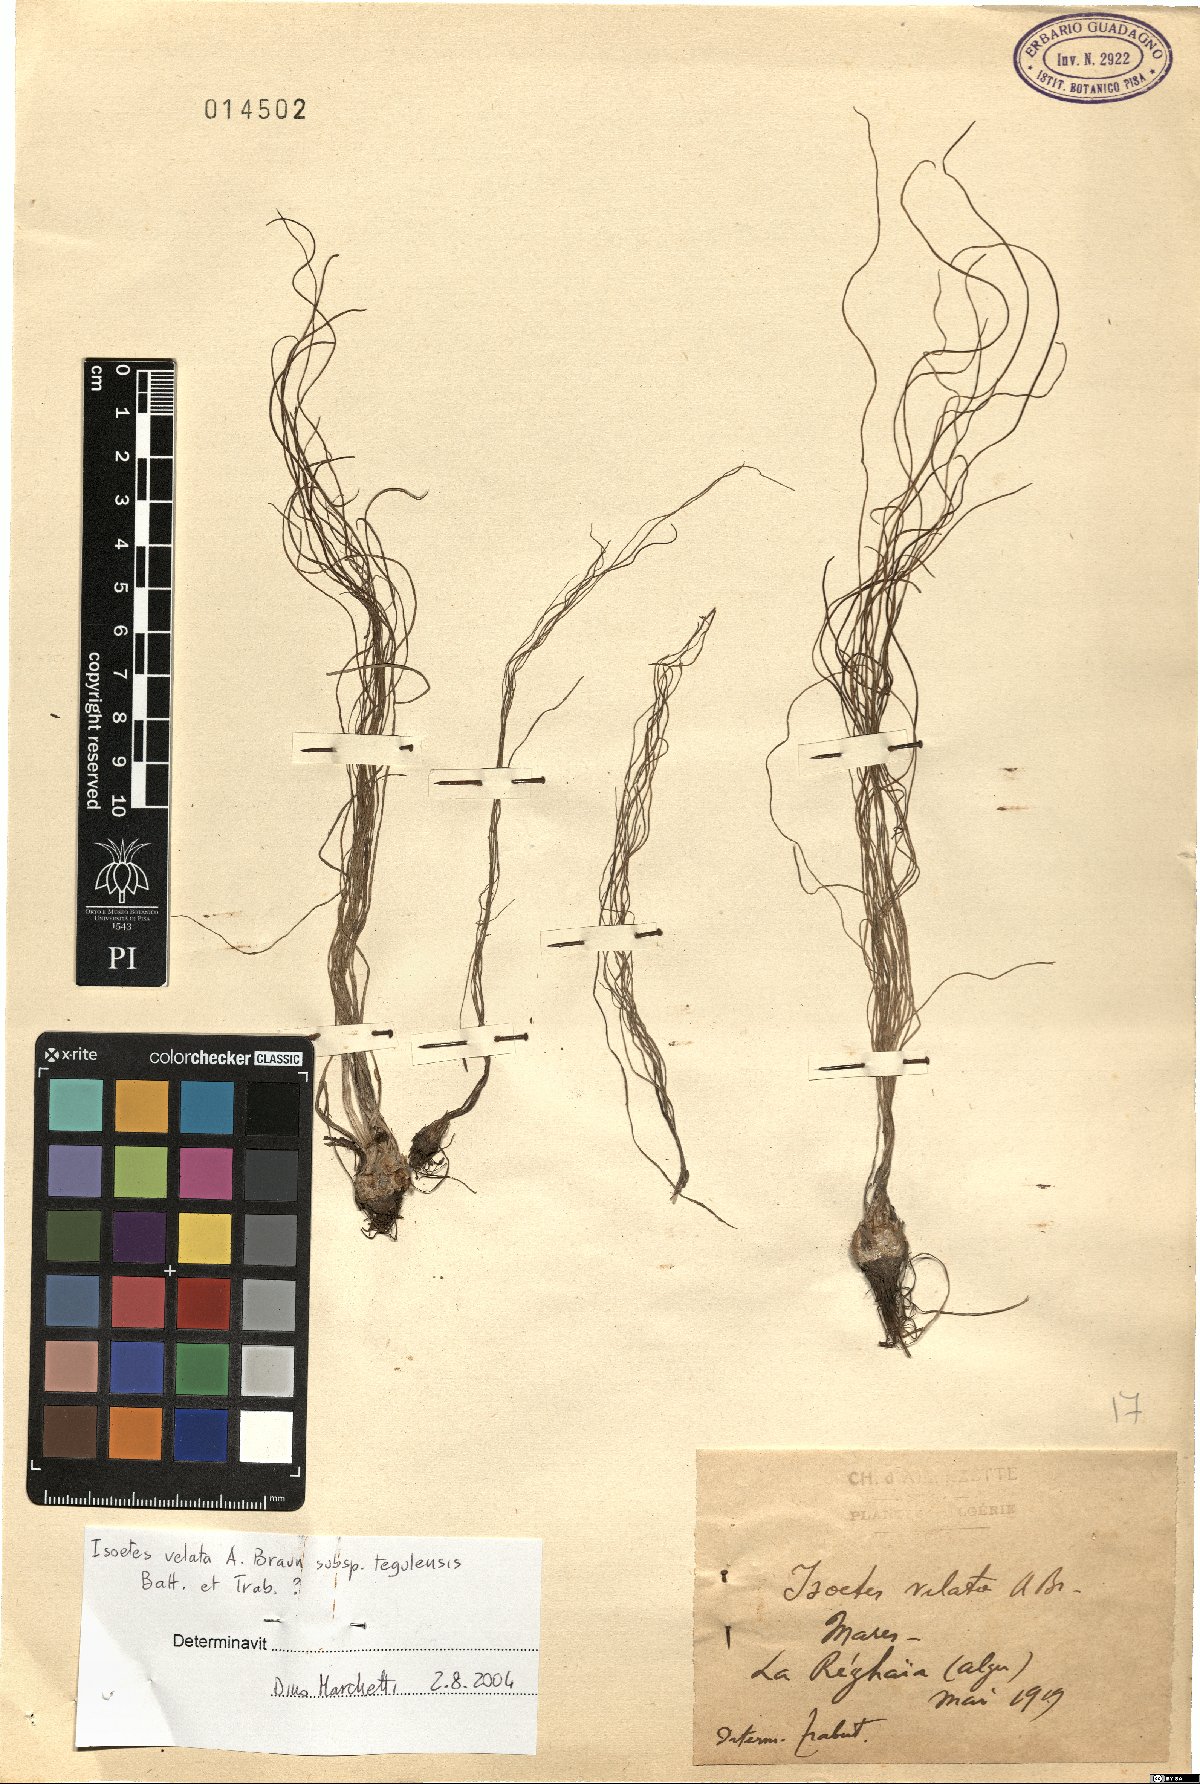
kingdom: Plantae
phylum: Tracheophyta
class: Lycopodiopsida
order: Isoetales
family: Isoetaceae
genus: Isoetes
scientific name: Isoetes tiguliana
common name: Sardinian quillwort
